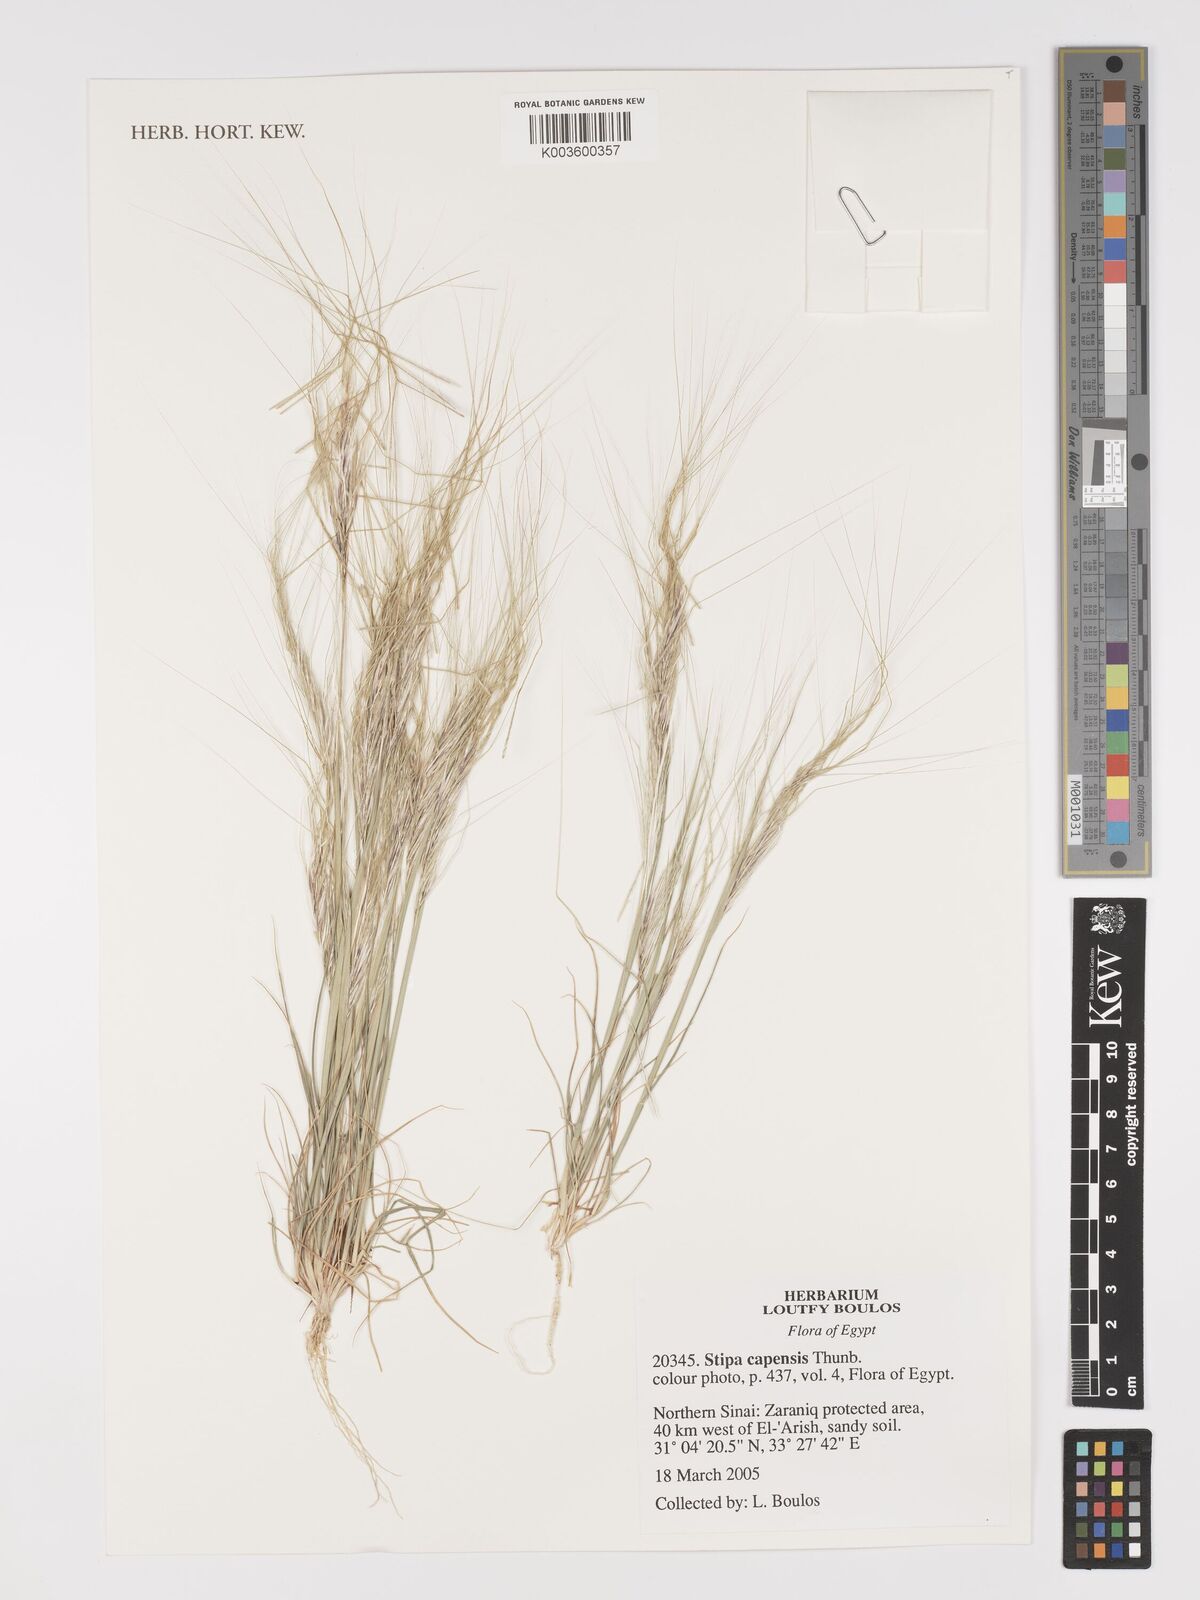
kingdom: Plantae
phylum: Tracheophyta
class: Liliopsida
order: Poales
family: Poaceae
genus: Stipellula
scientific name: Stipellula capensis
